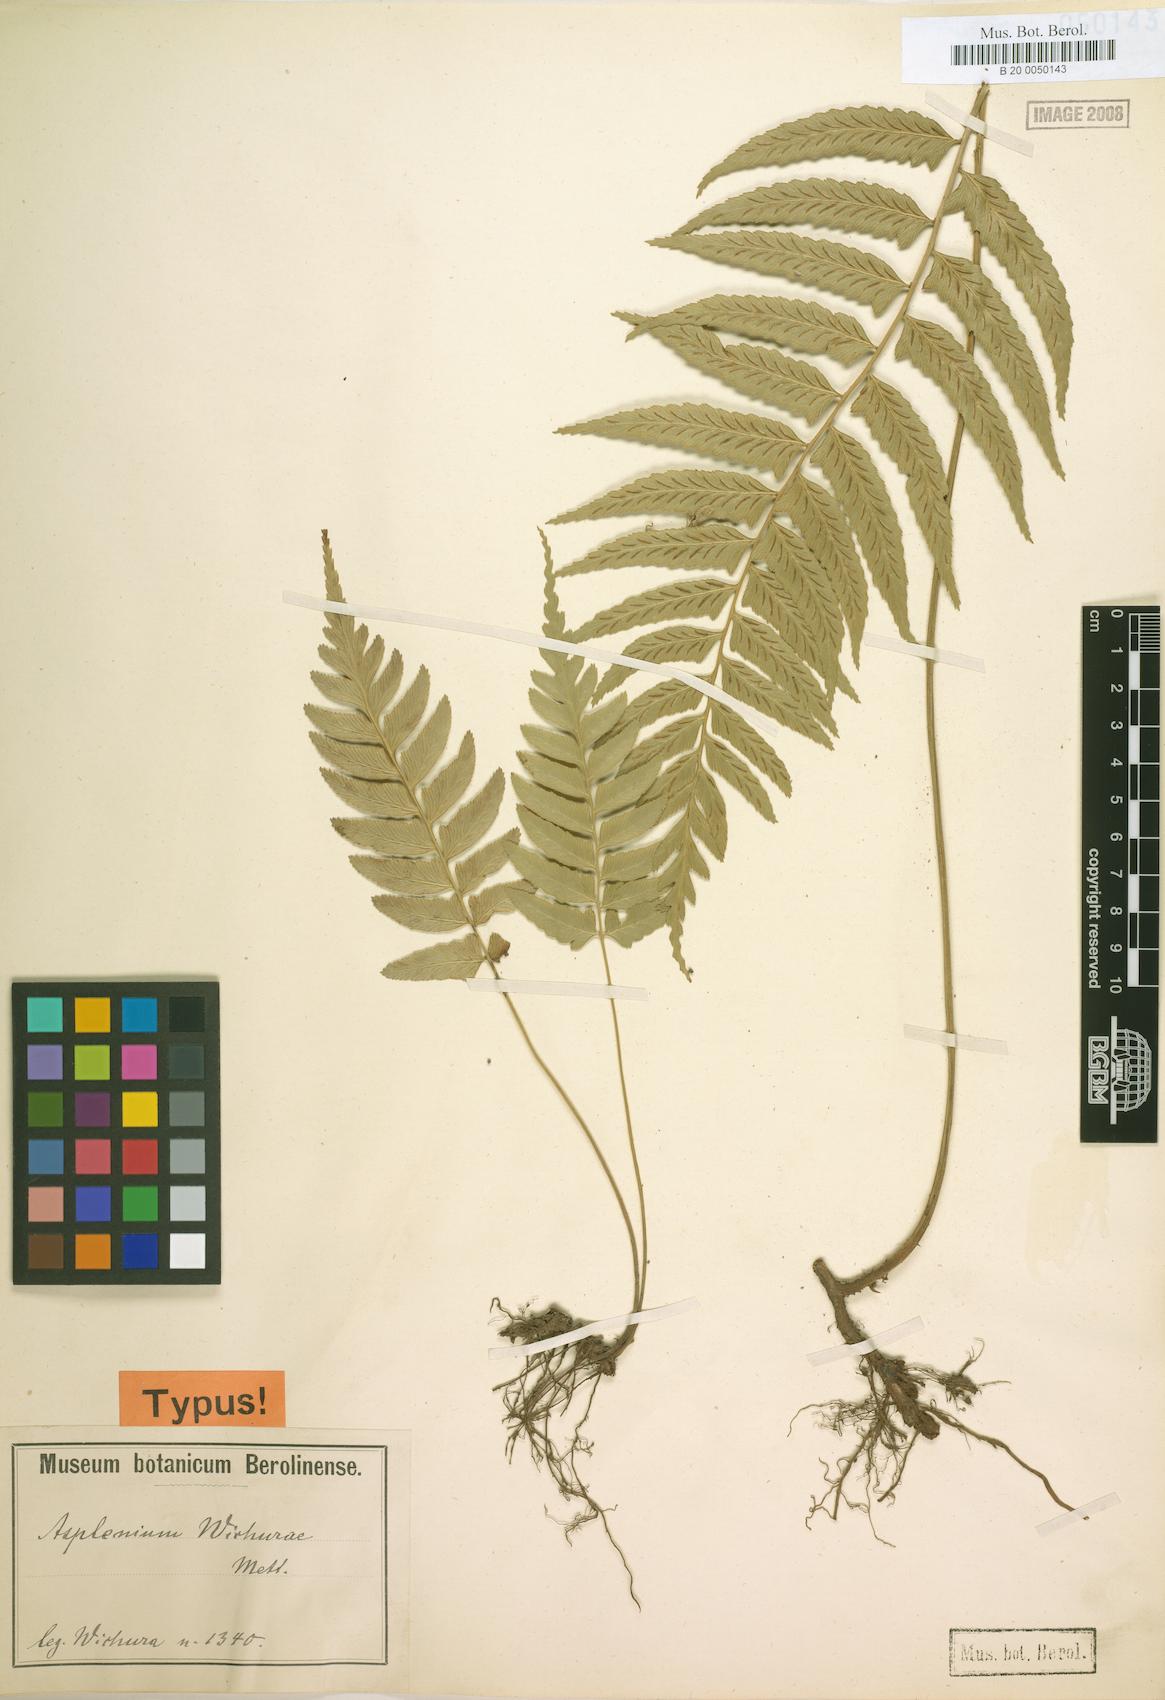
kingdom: Plantae
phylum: Tracheophyta
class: Polypodiopsida
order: Polypodiales
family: Athyriaceae
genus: Diplazium
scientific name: Diplazium wichurae
